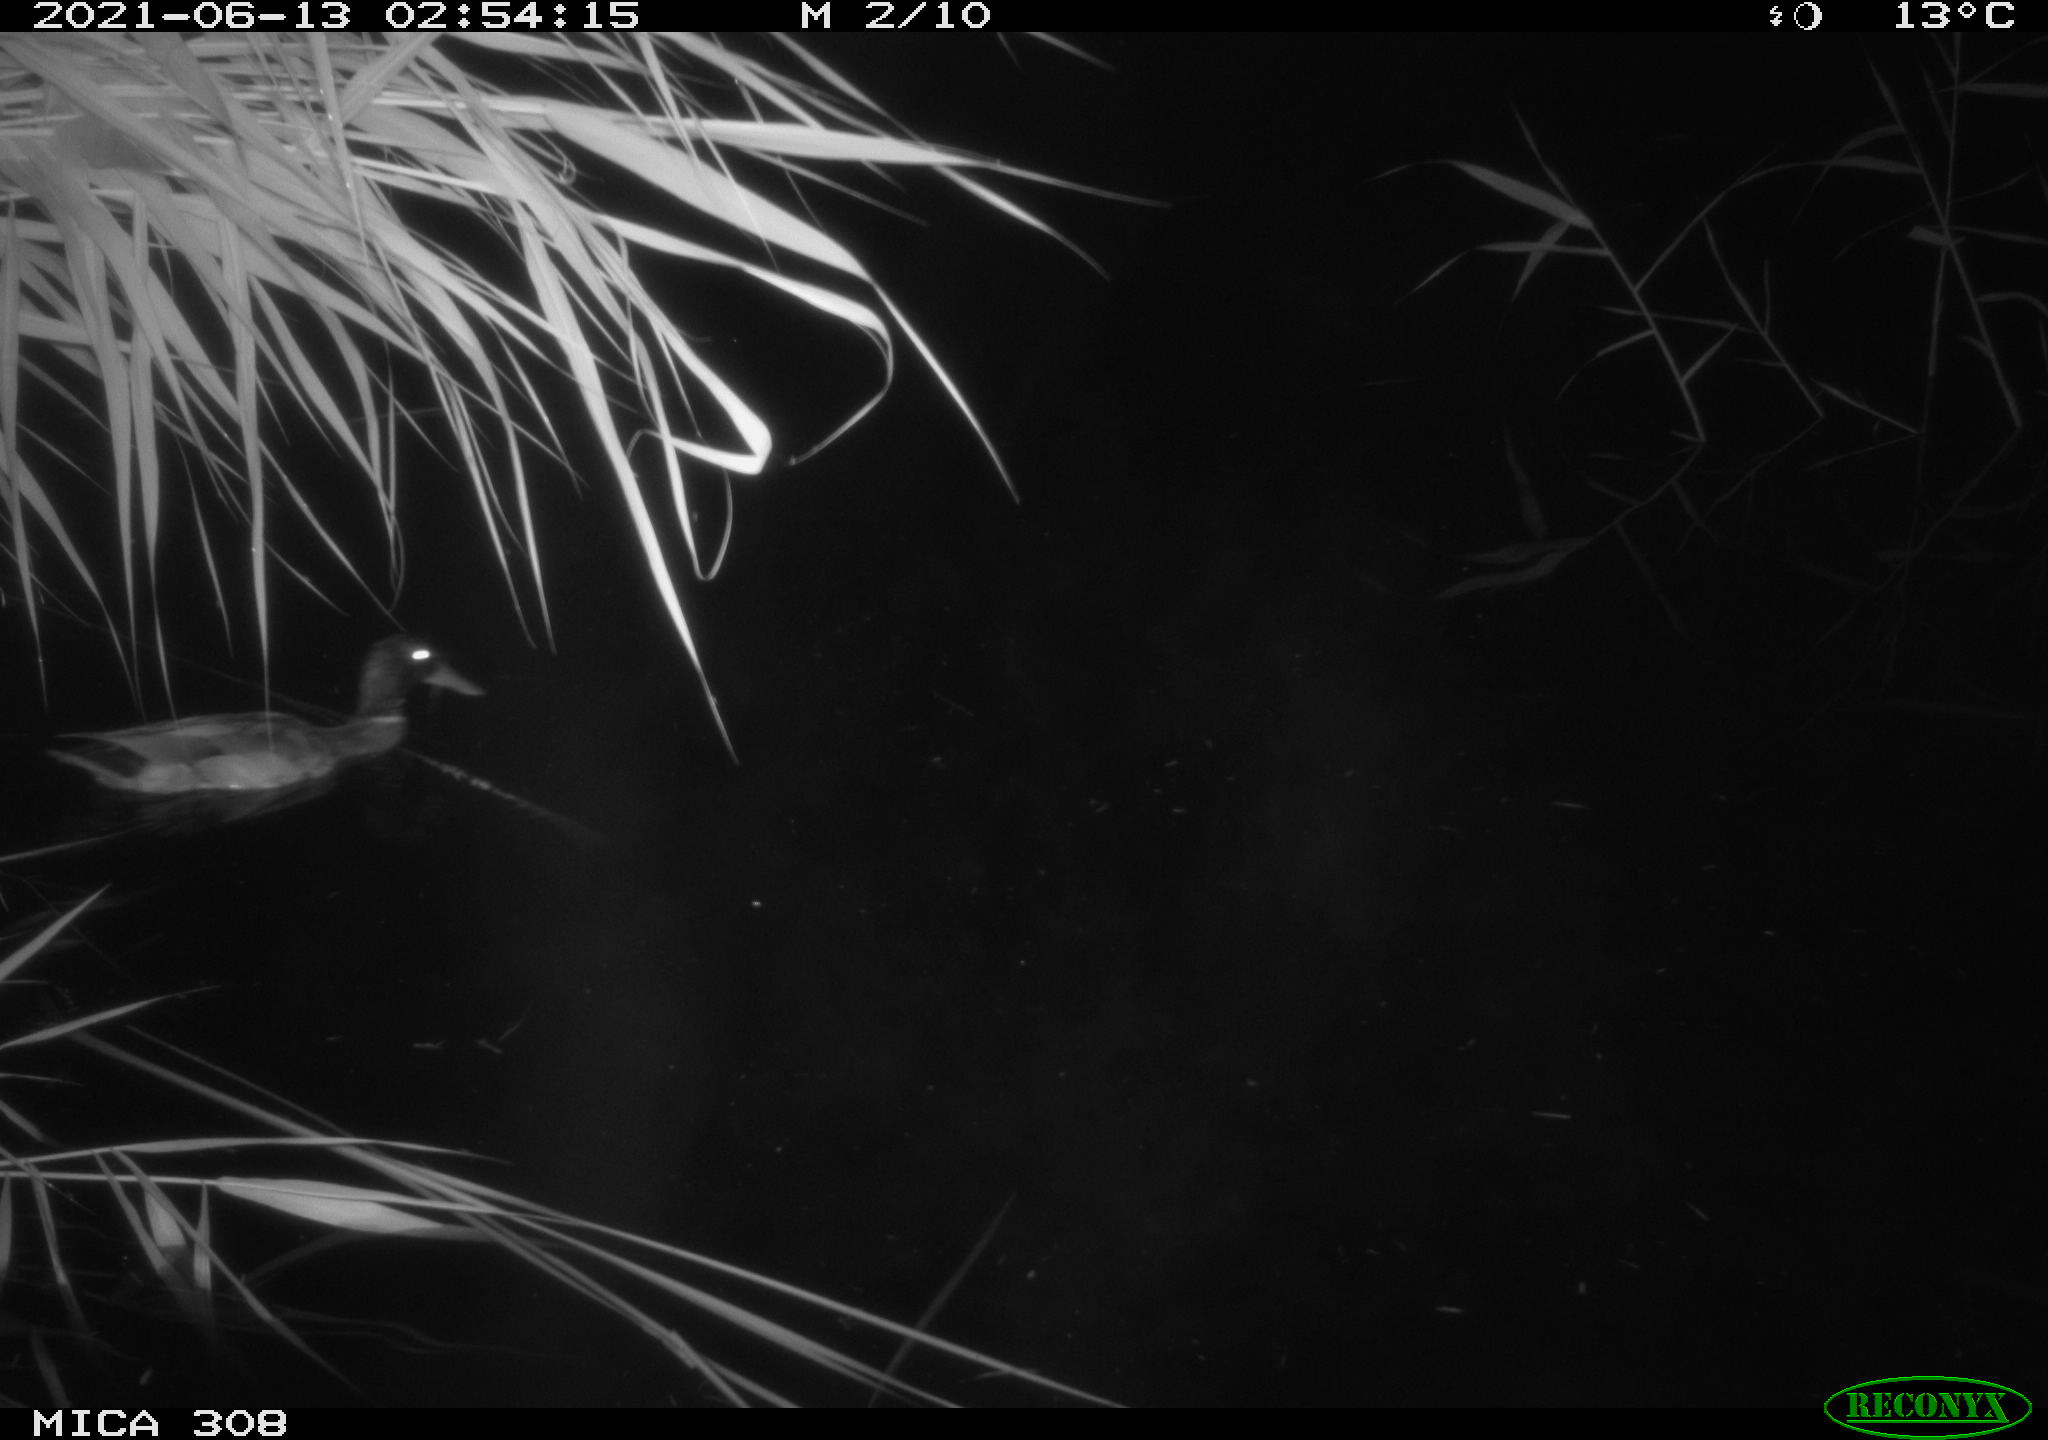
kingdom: Animalia
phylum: Chordata
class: Aves
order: Anseriformes
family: Anatidae
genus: Anas
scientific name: Anas platyrhynchos
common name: Mallard
